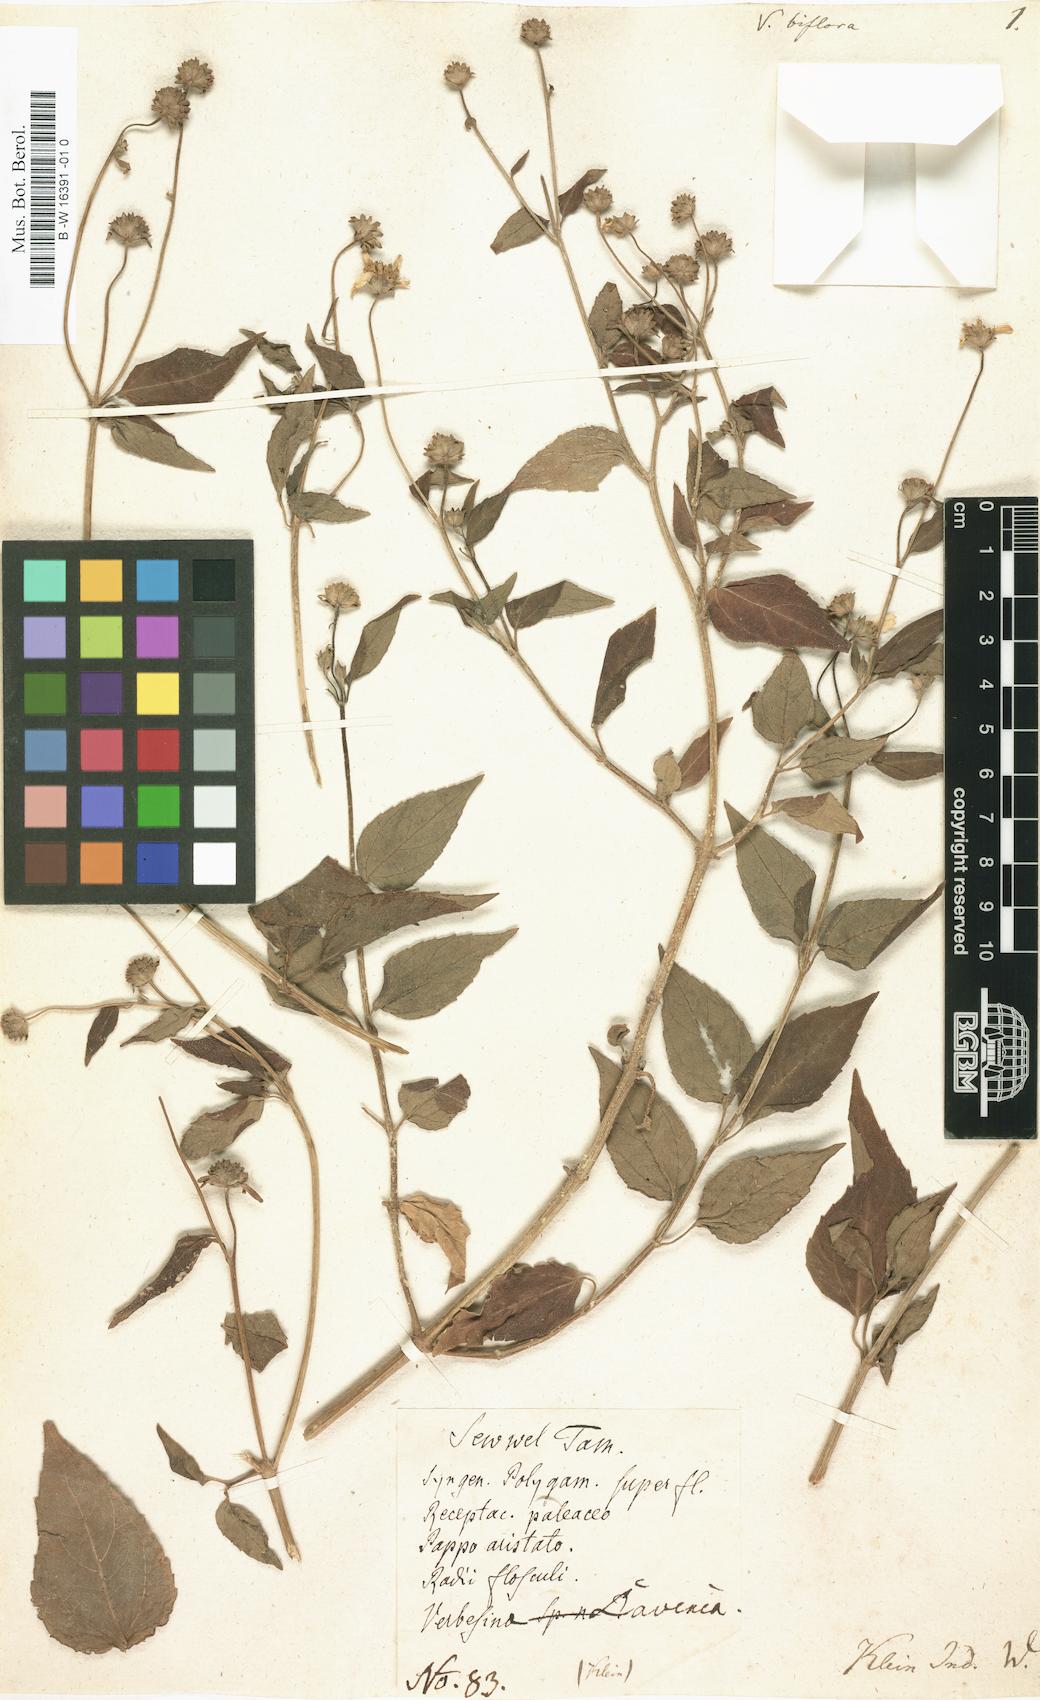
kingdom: Plantae
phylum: Tracheophyta
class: Magnoliopsida
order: Asterales
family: Asteraceae
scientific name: Asteraceae
